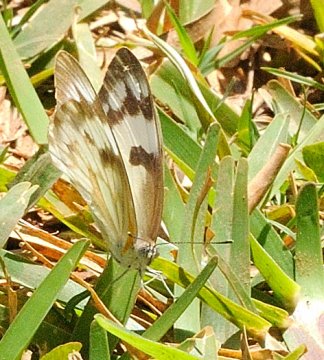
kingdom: Animalia
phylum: Arthropoda
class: Insecta
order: Lepidoptera
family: Pieridae
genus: Belenois
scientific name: Belenois gidica
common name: African Veined White
